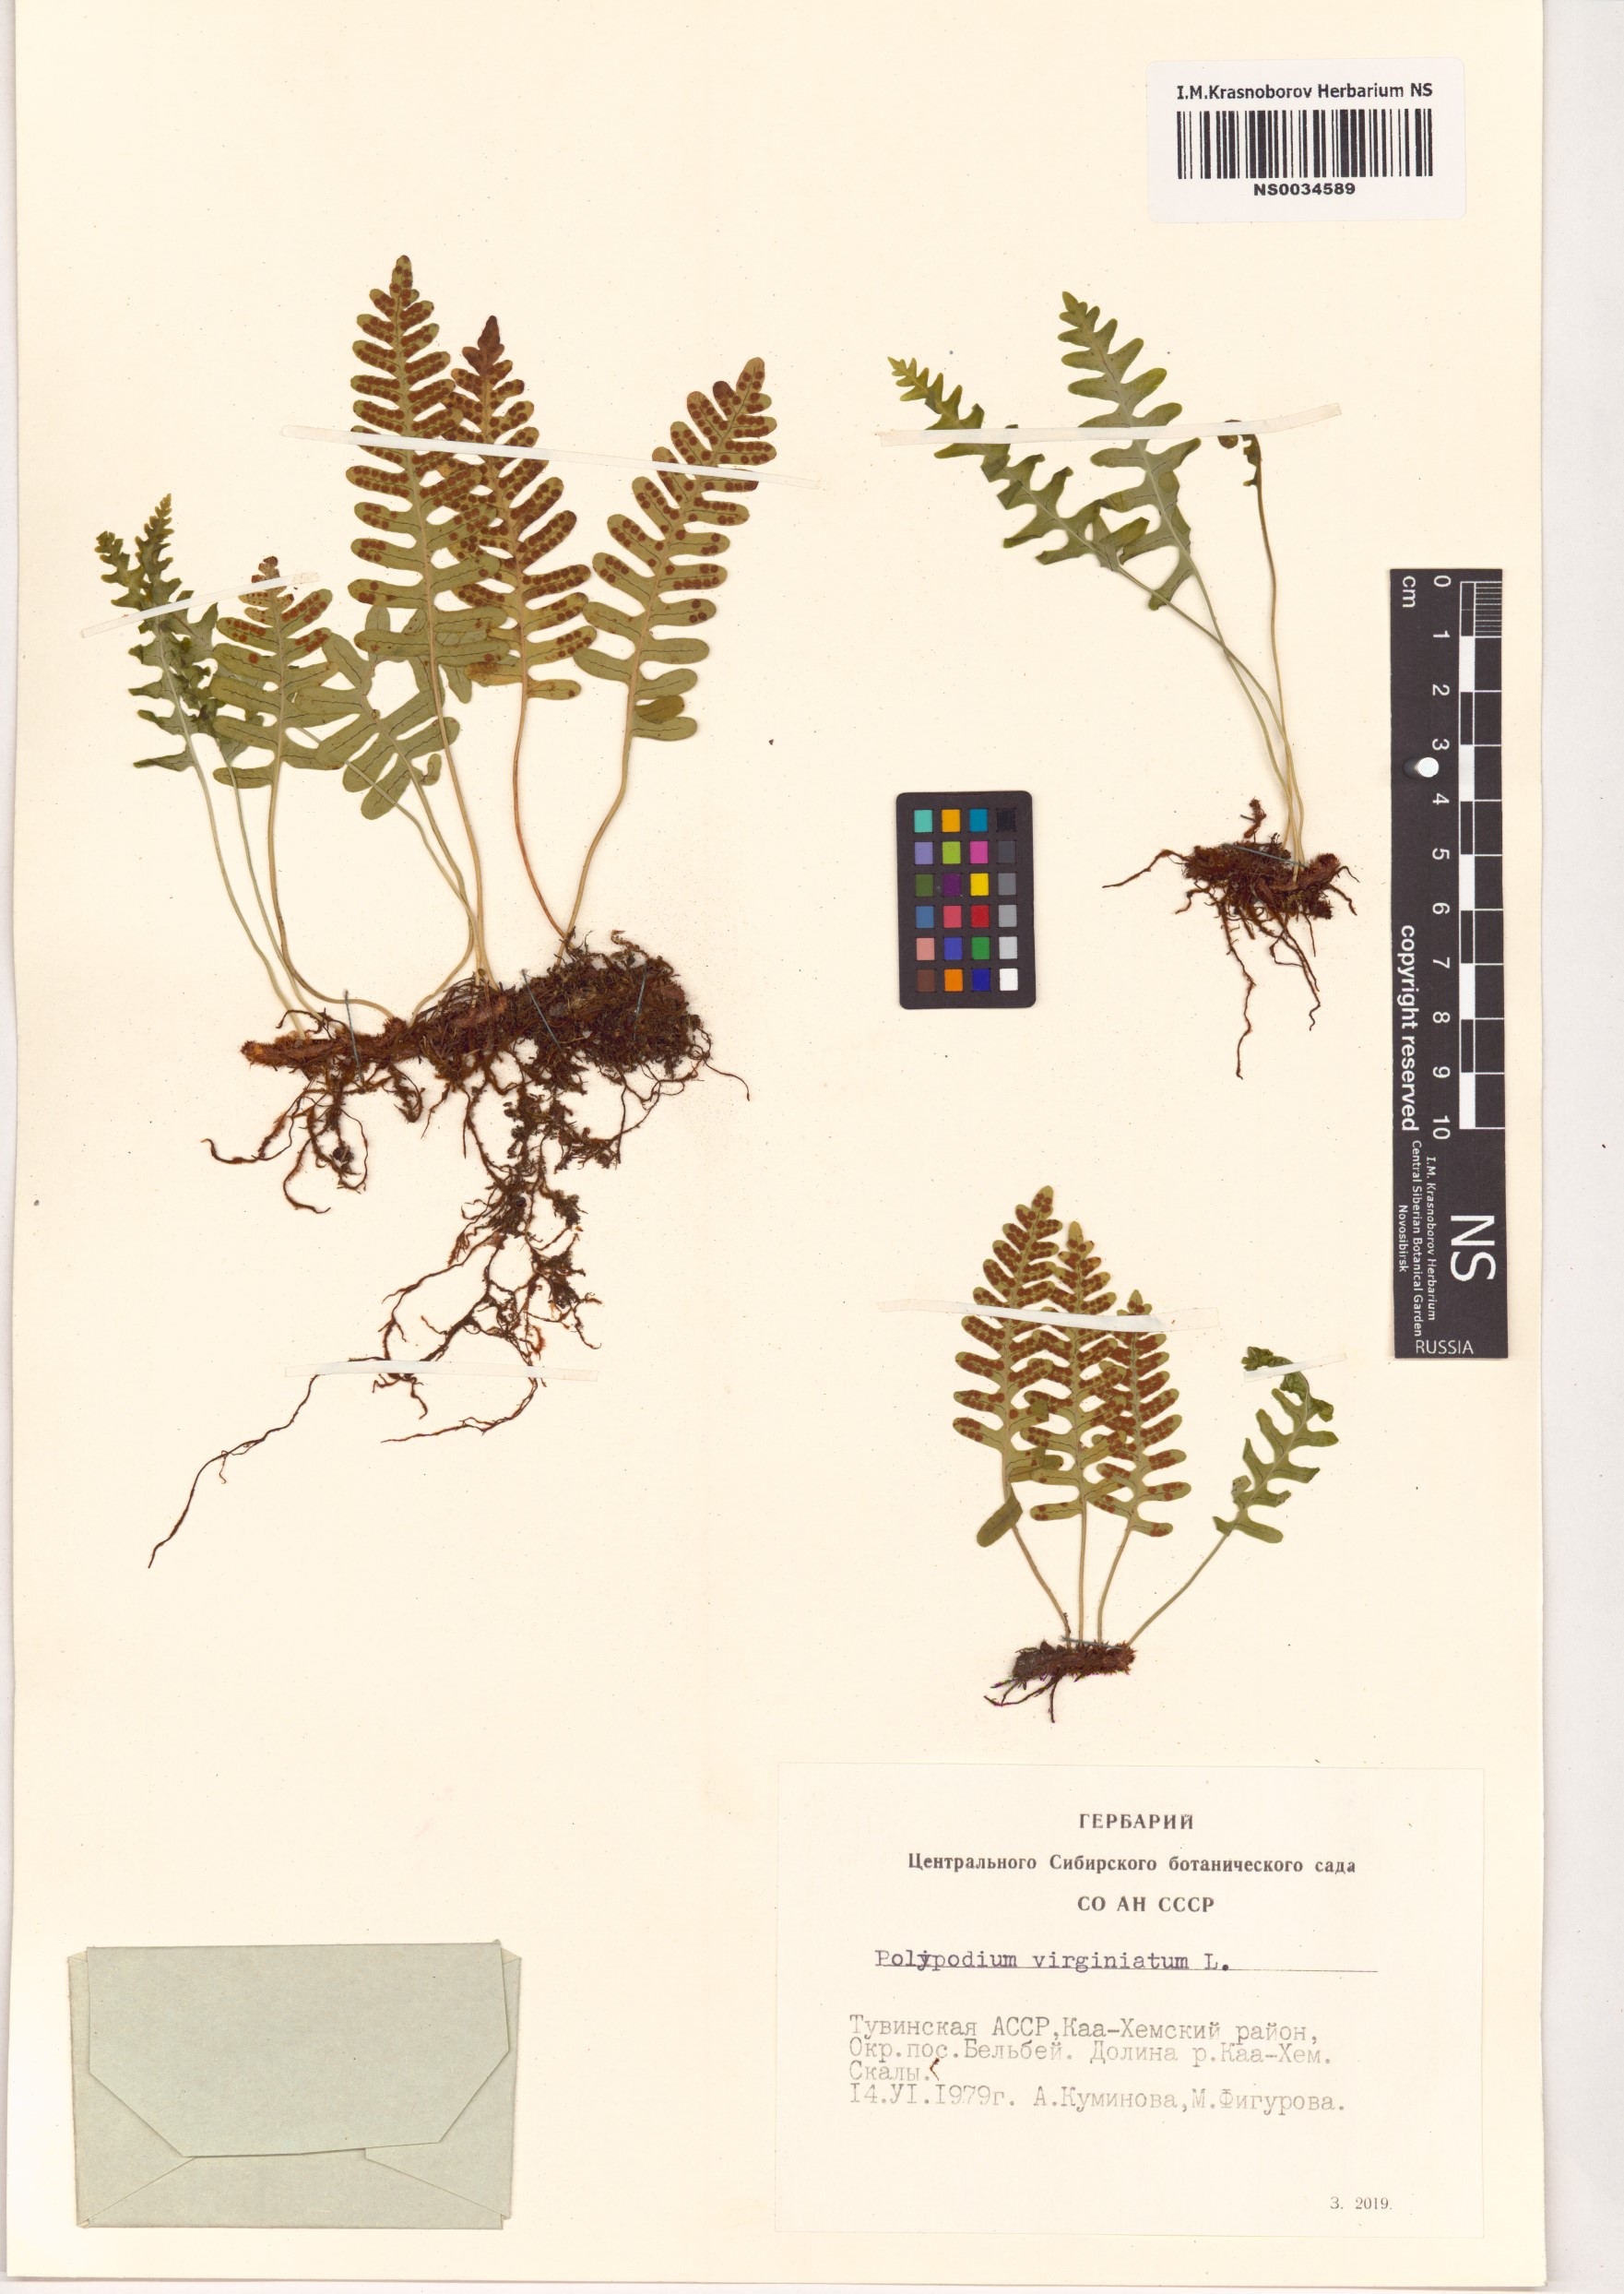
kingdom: Plantae
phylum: Tracheophyta
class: Polypodiopsida
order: Polypodiales
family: Polypodiaceae
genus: Polypodium
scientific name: Polypodium virginianum
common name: American wall fern
